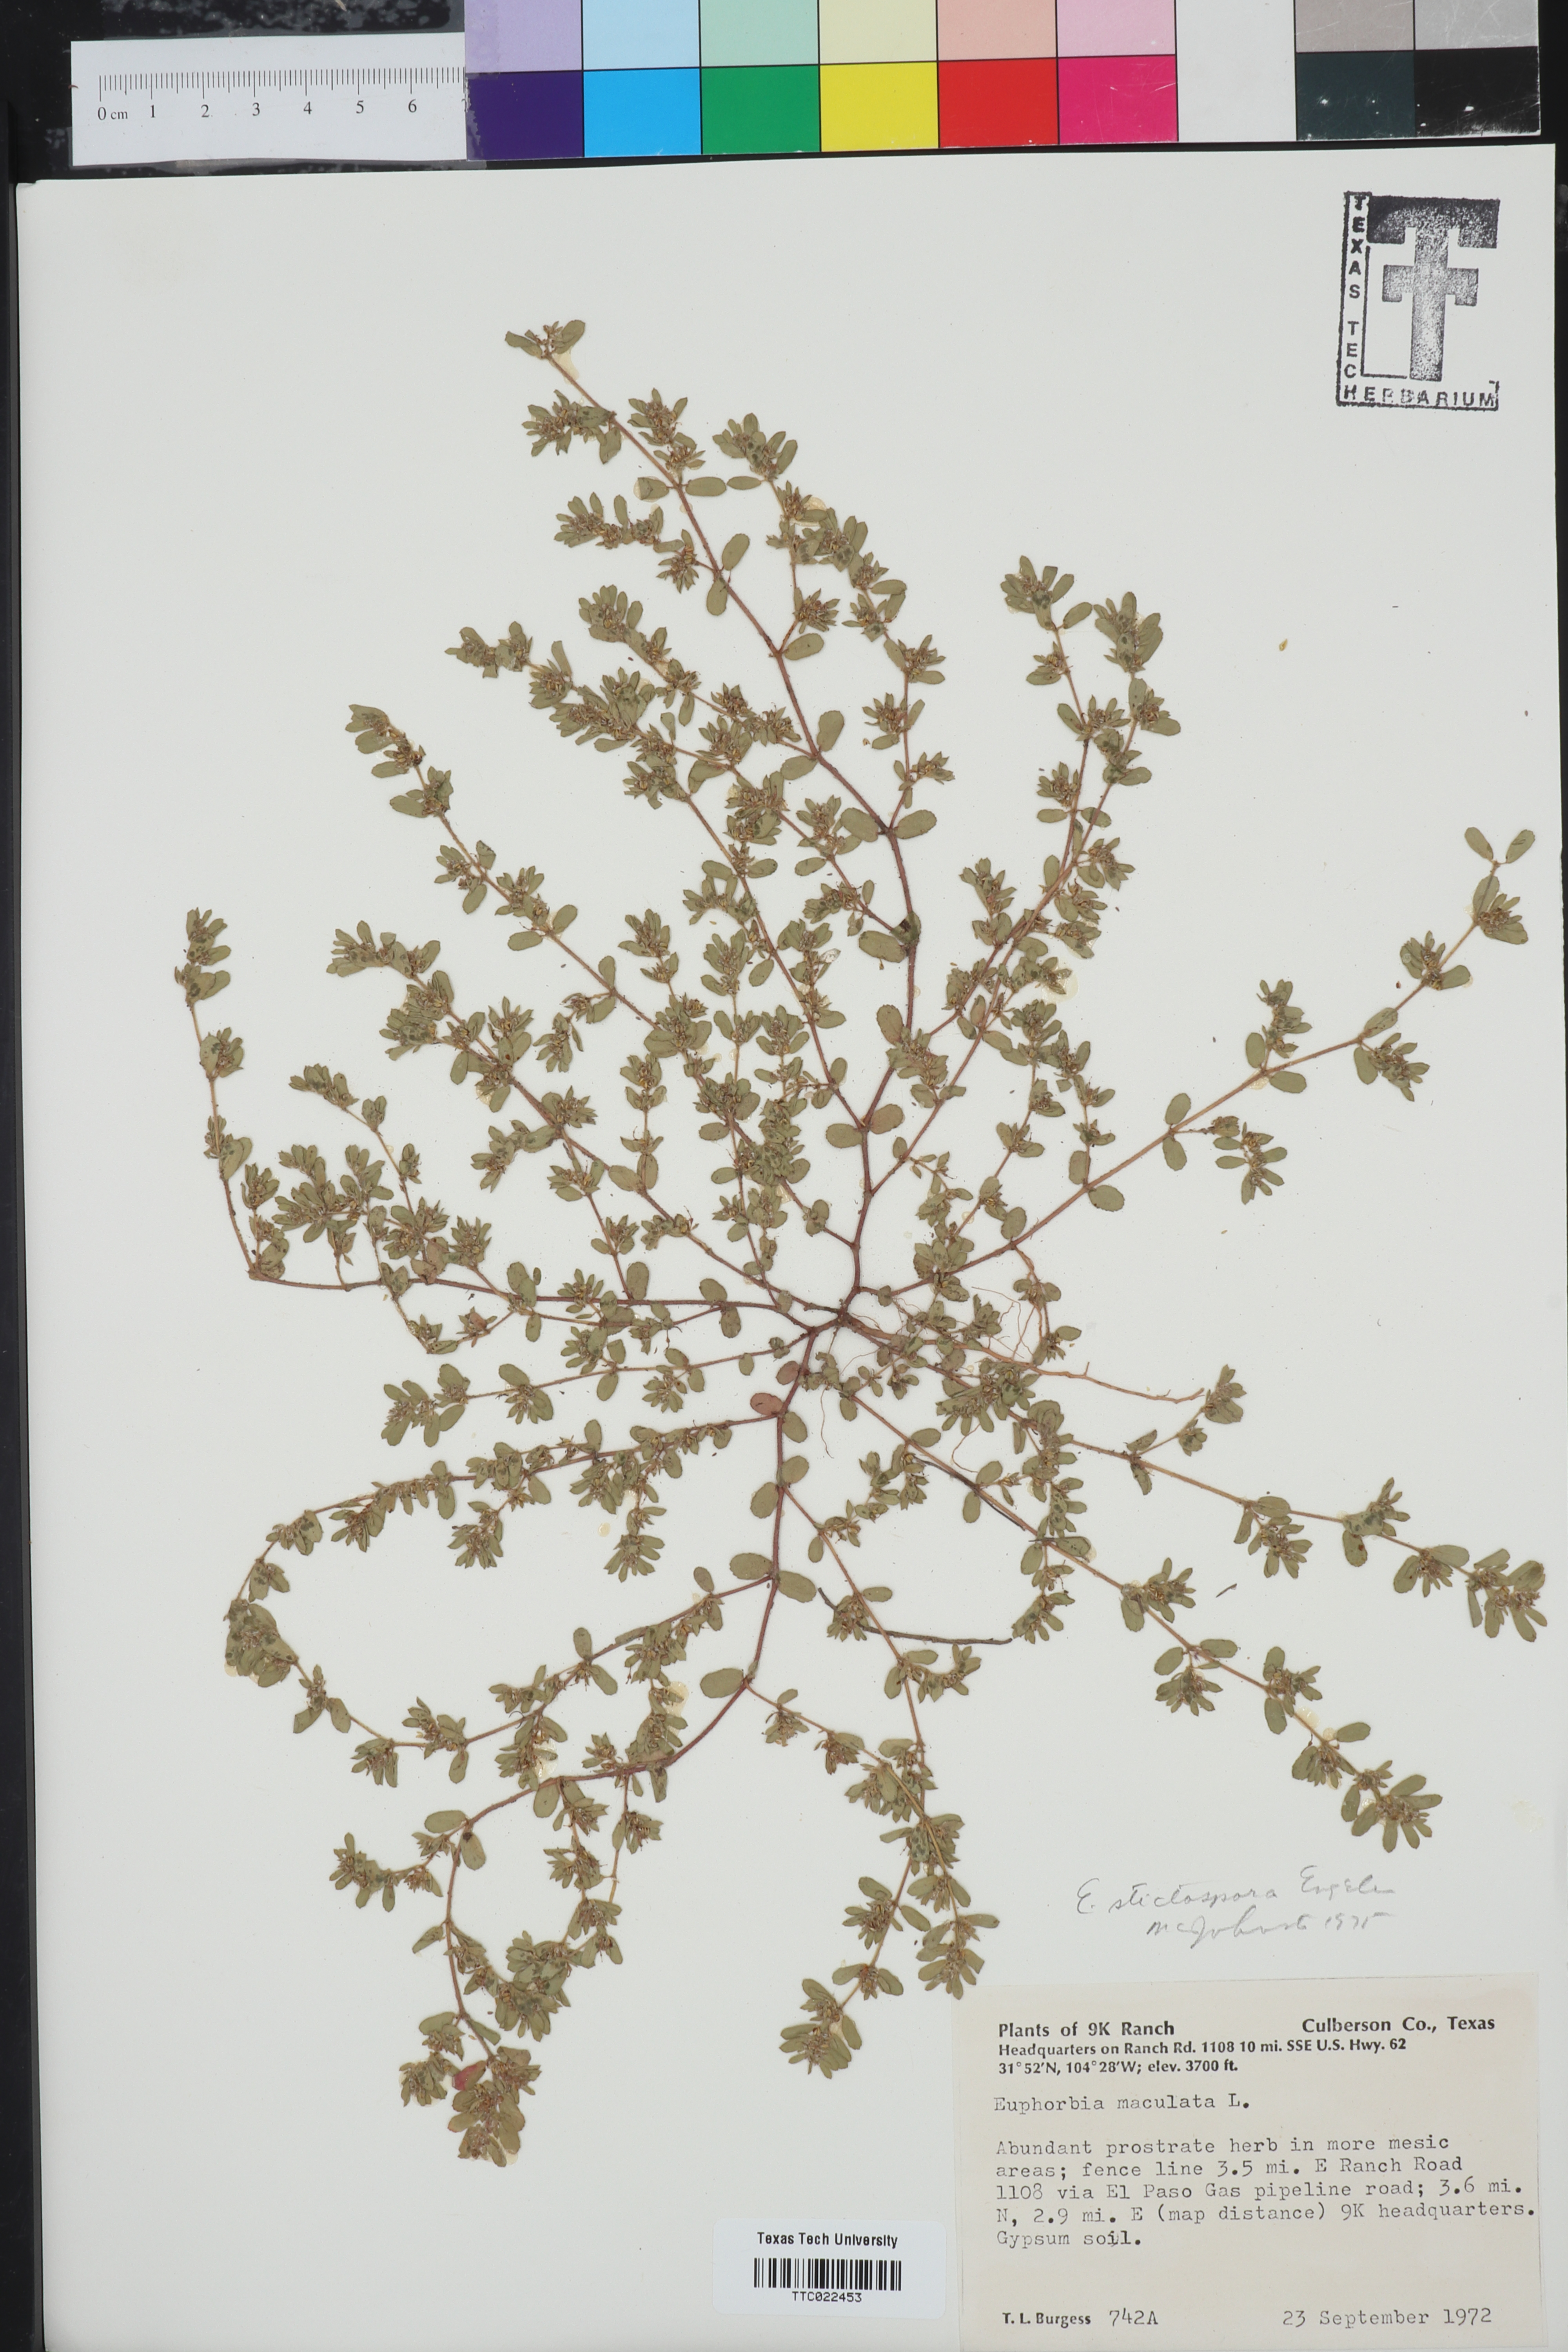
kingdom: Plantae
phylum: Tracheophyta
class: Magnoliopsida
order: Malpighiales
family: Euphorbiaceae
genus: Euphorbia
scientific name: Euphorbia maculata
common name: Spotted spurge
